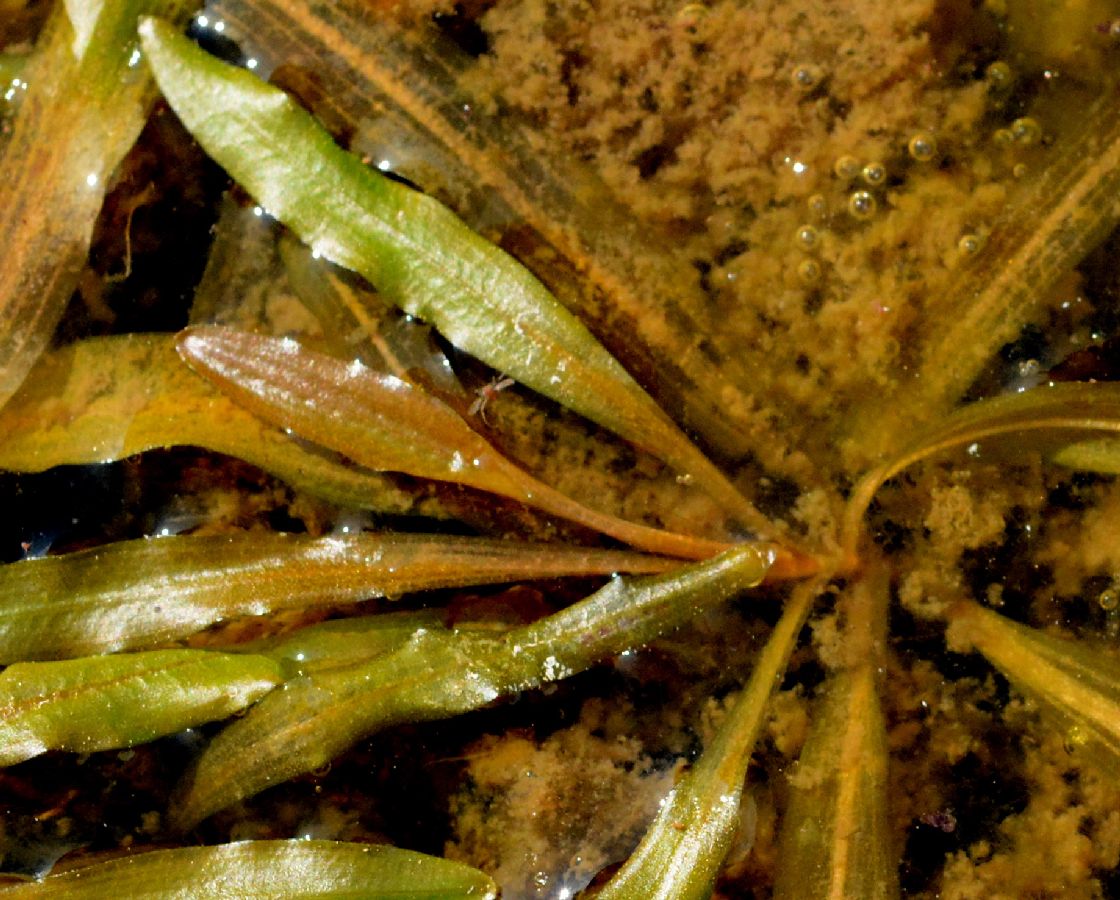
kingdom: Plantae
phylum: Tracheophyta
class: Liliopsida
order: Alismatales
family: Potamogetonaceae
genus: Potamogeton
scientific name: Potamogeton alpinus
